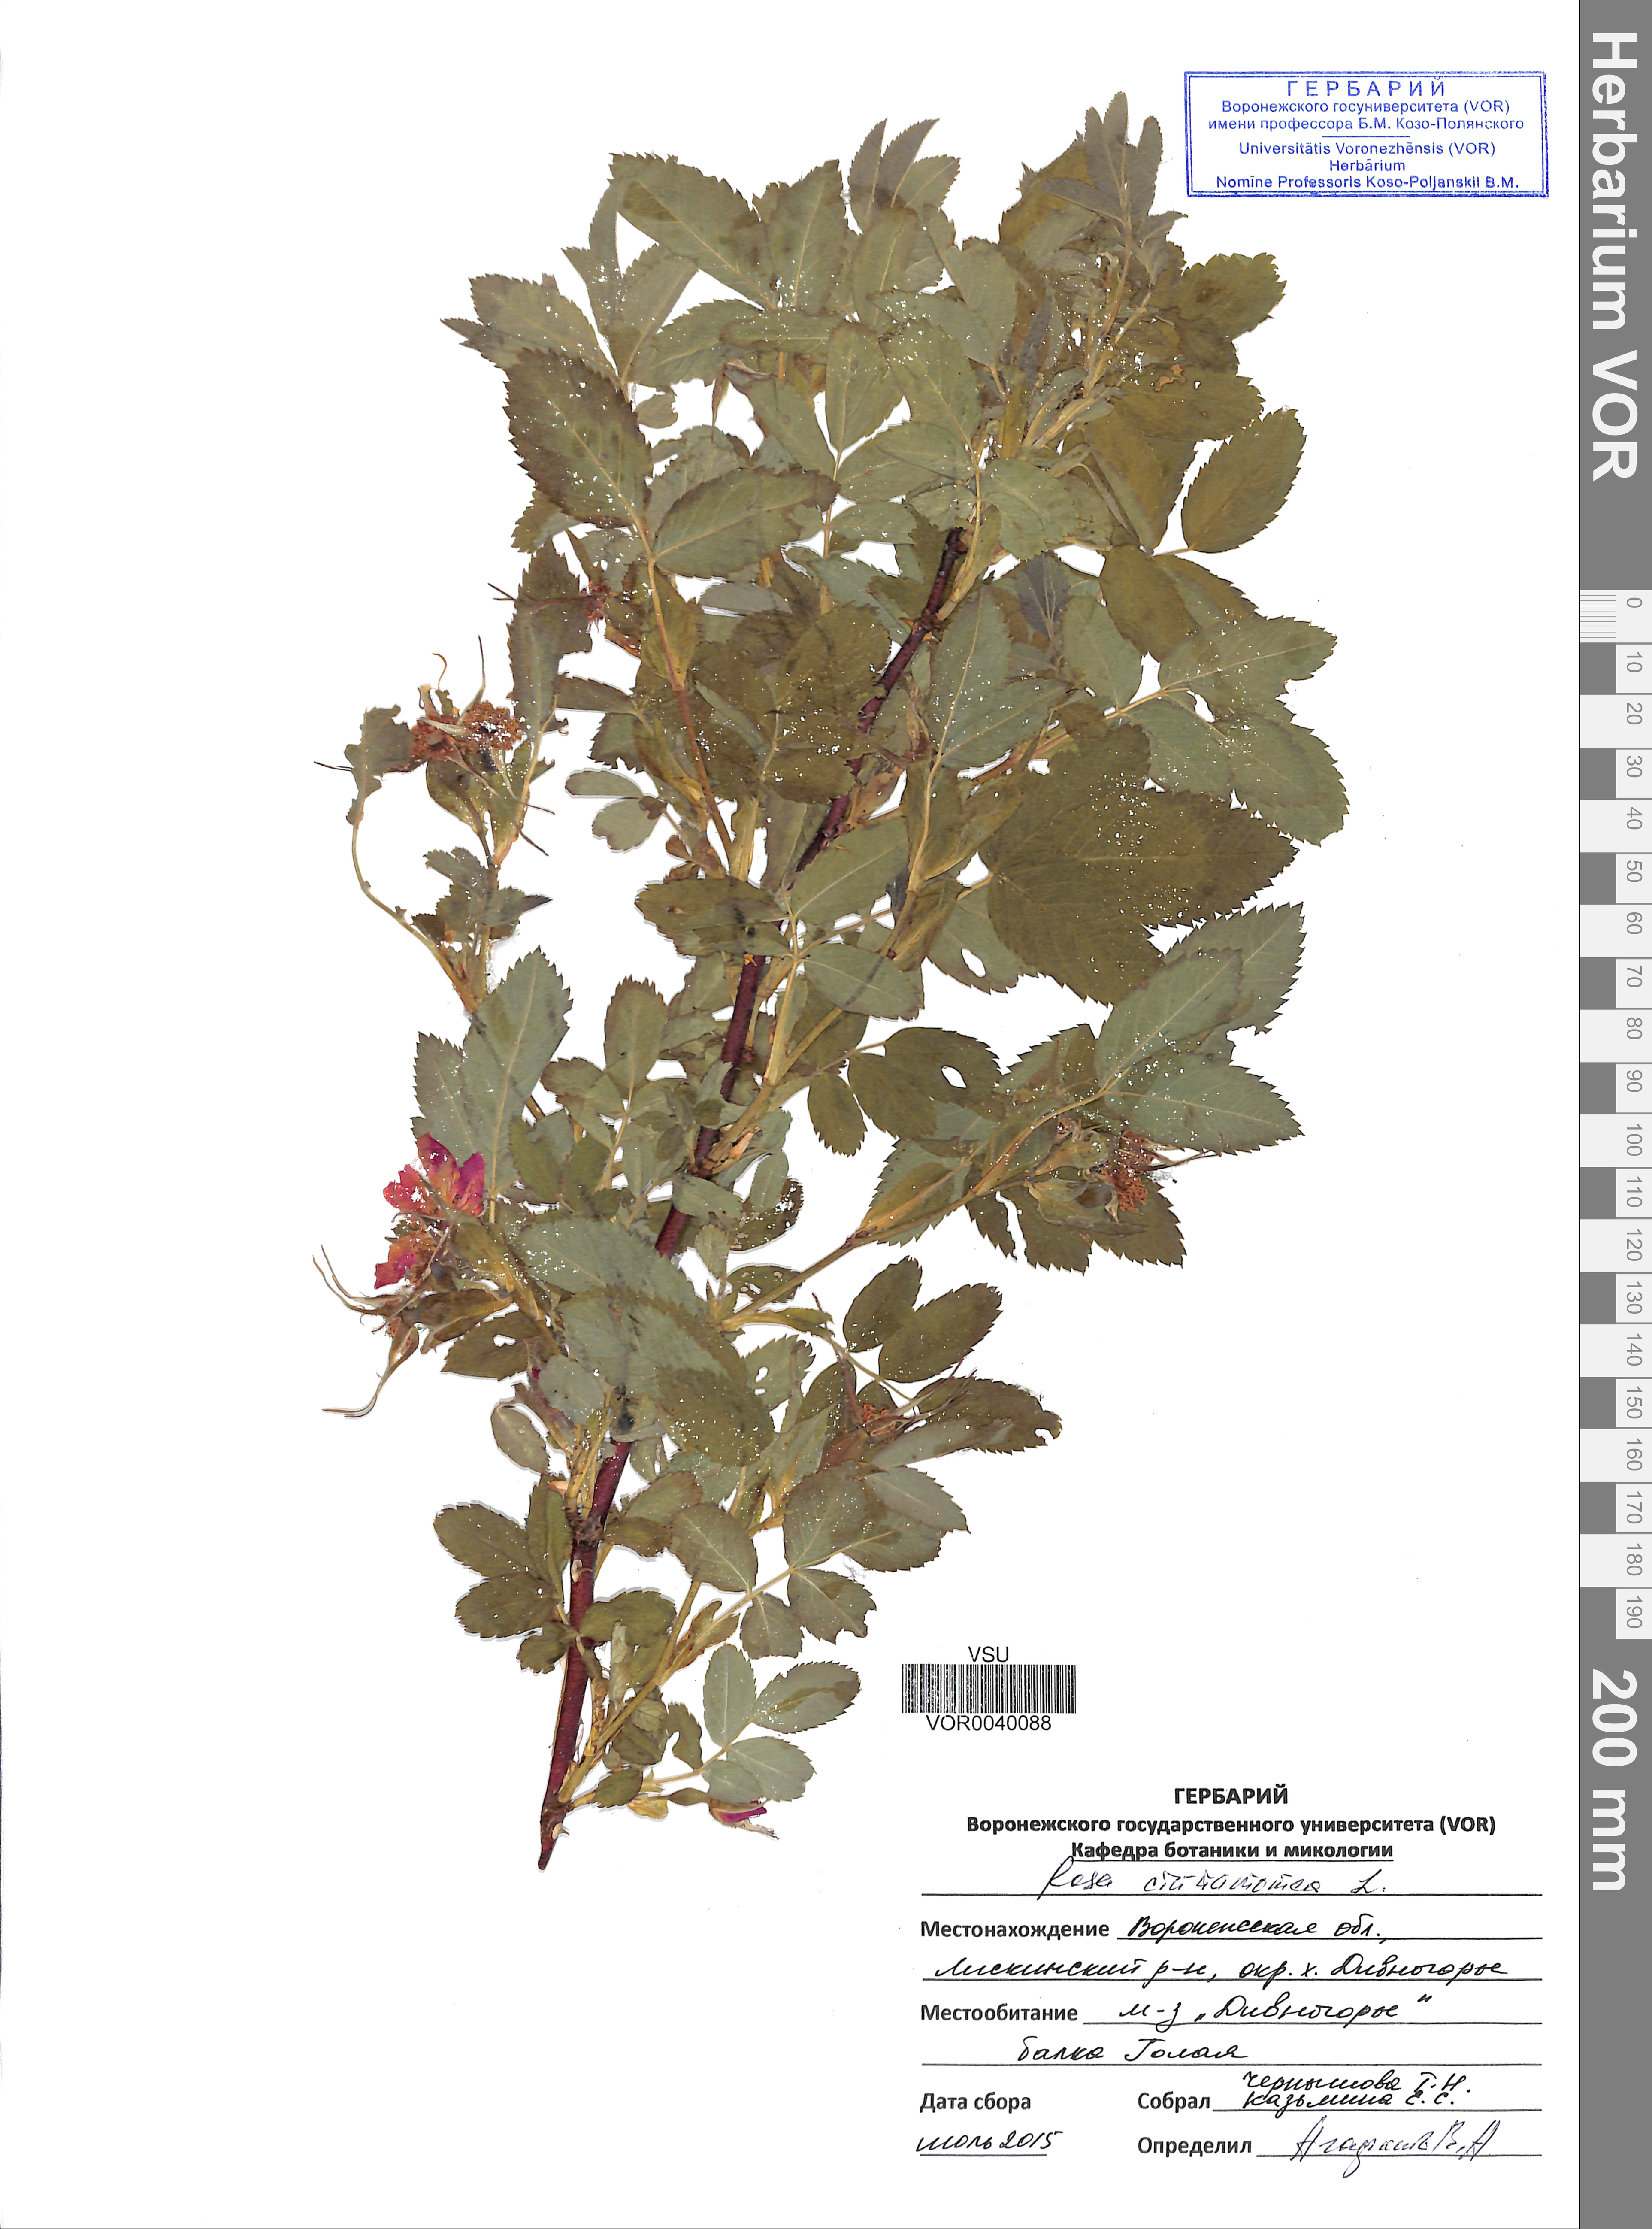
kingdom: Plantae
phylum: Tracheophyta
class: Magnoliopsida
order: Rosales
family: Rosaceae
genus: Rosa
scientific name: Rosa pendulina
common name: Alpine rose
